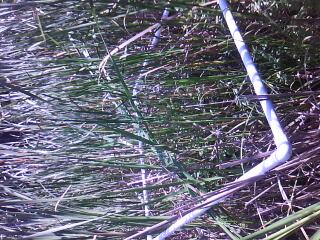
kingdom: Plantae
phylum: Tracheophyta
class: Magnoliopsida
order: Gentianales
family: Rubiaceae
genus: Asperula
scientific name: Asperula tinctoria
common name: Dyer's woodruff
